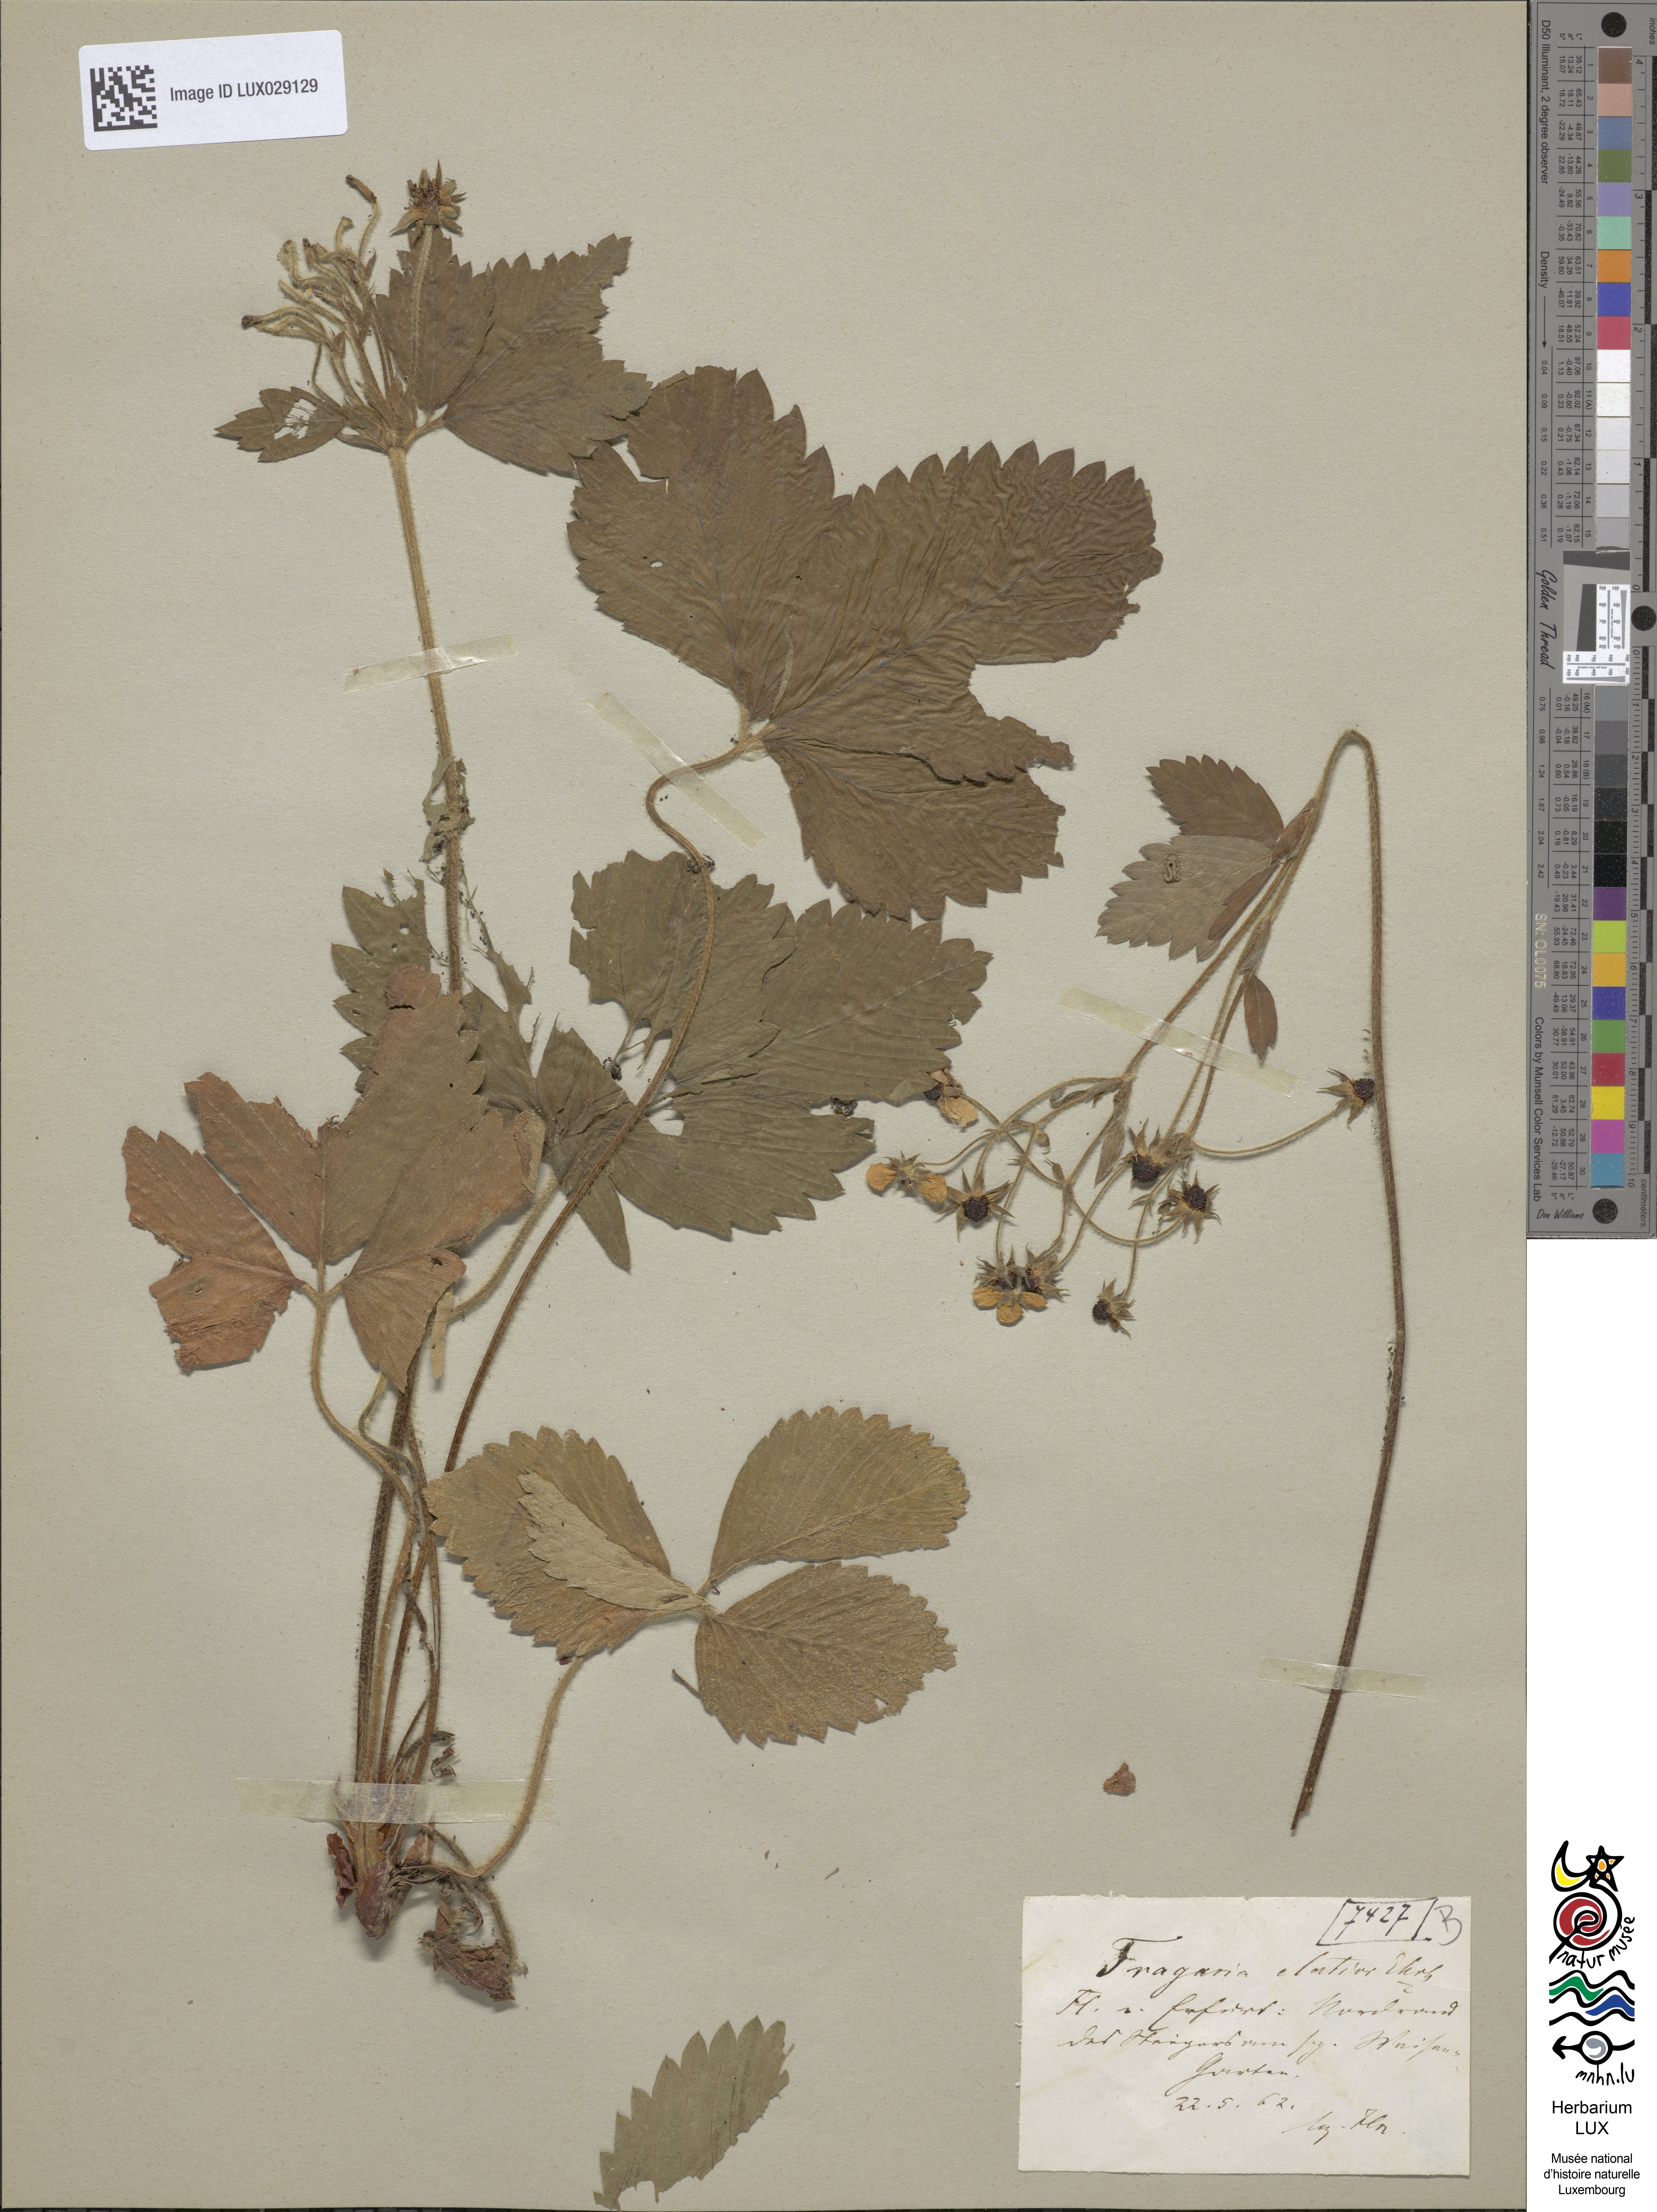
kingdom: Plantae
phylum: Tracheophyta
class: Magnoliopsida
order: Rosales
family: Rosaceae
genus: Fragaria
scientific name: Fragaria moschata
